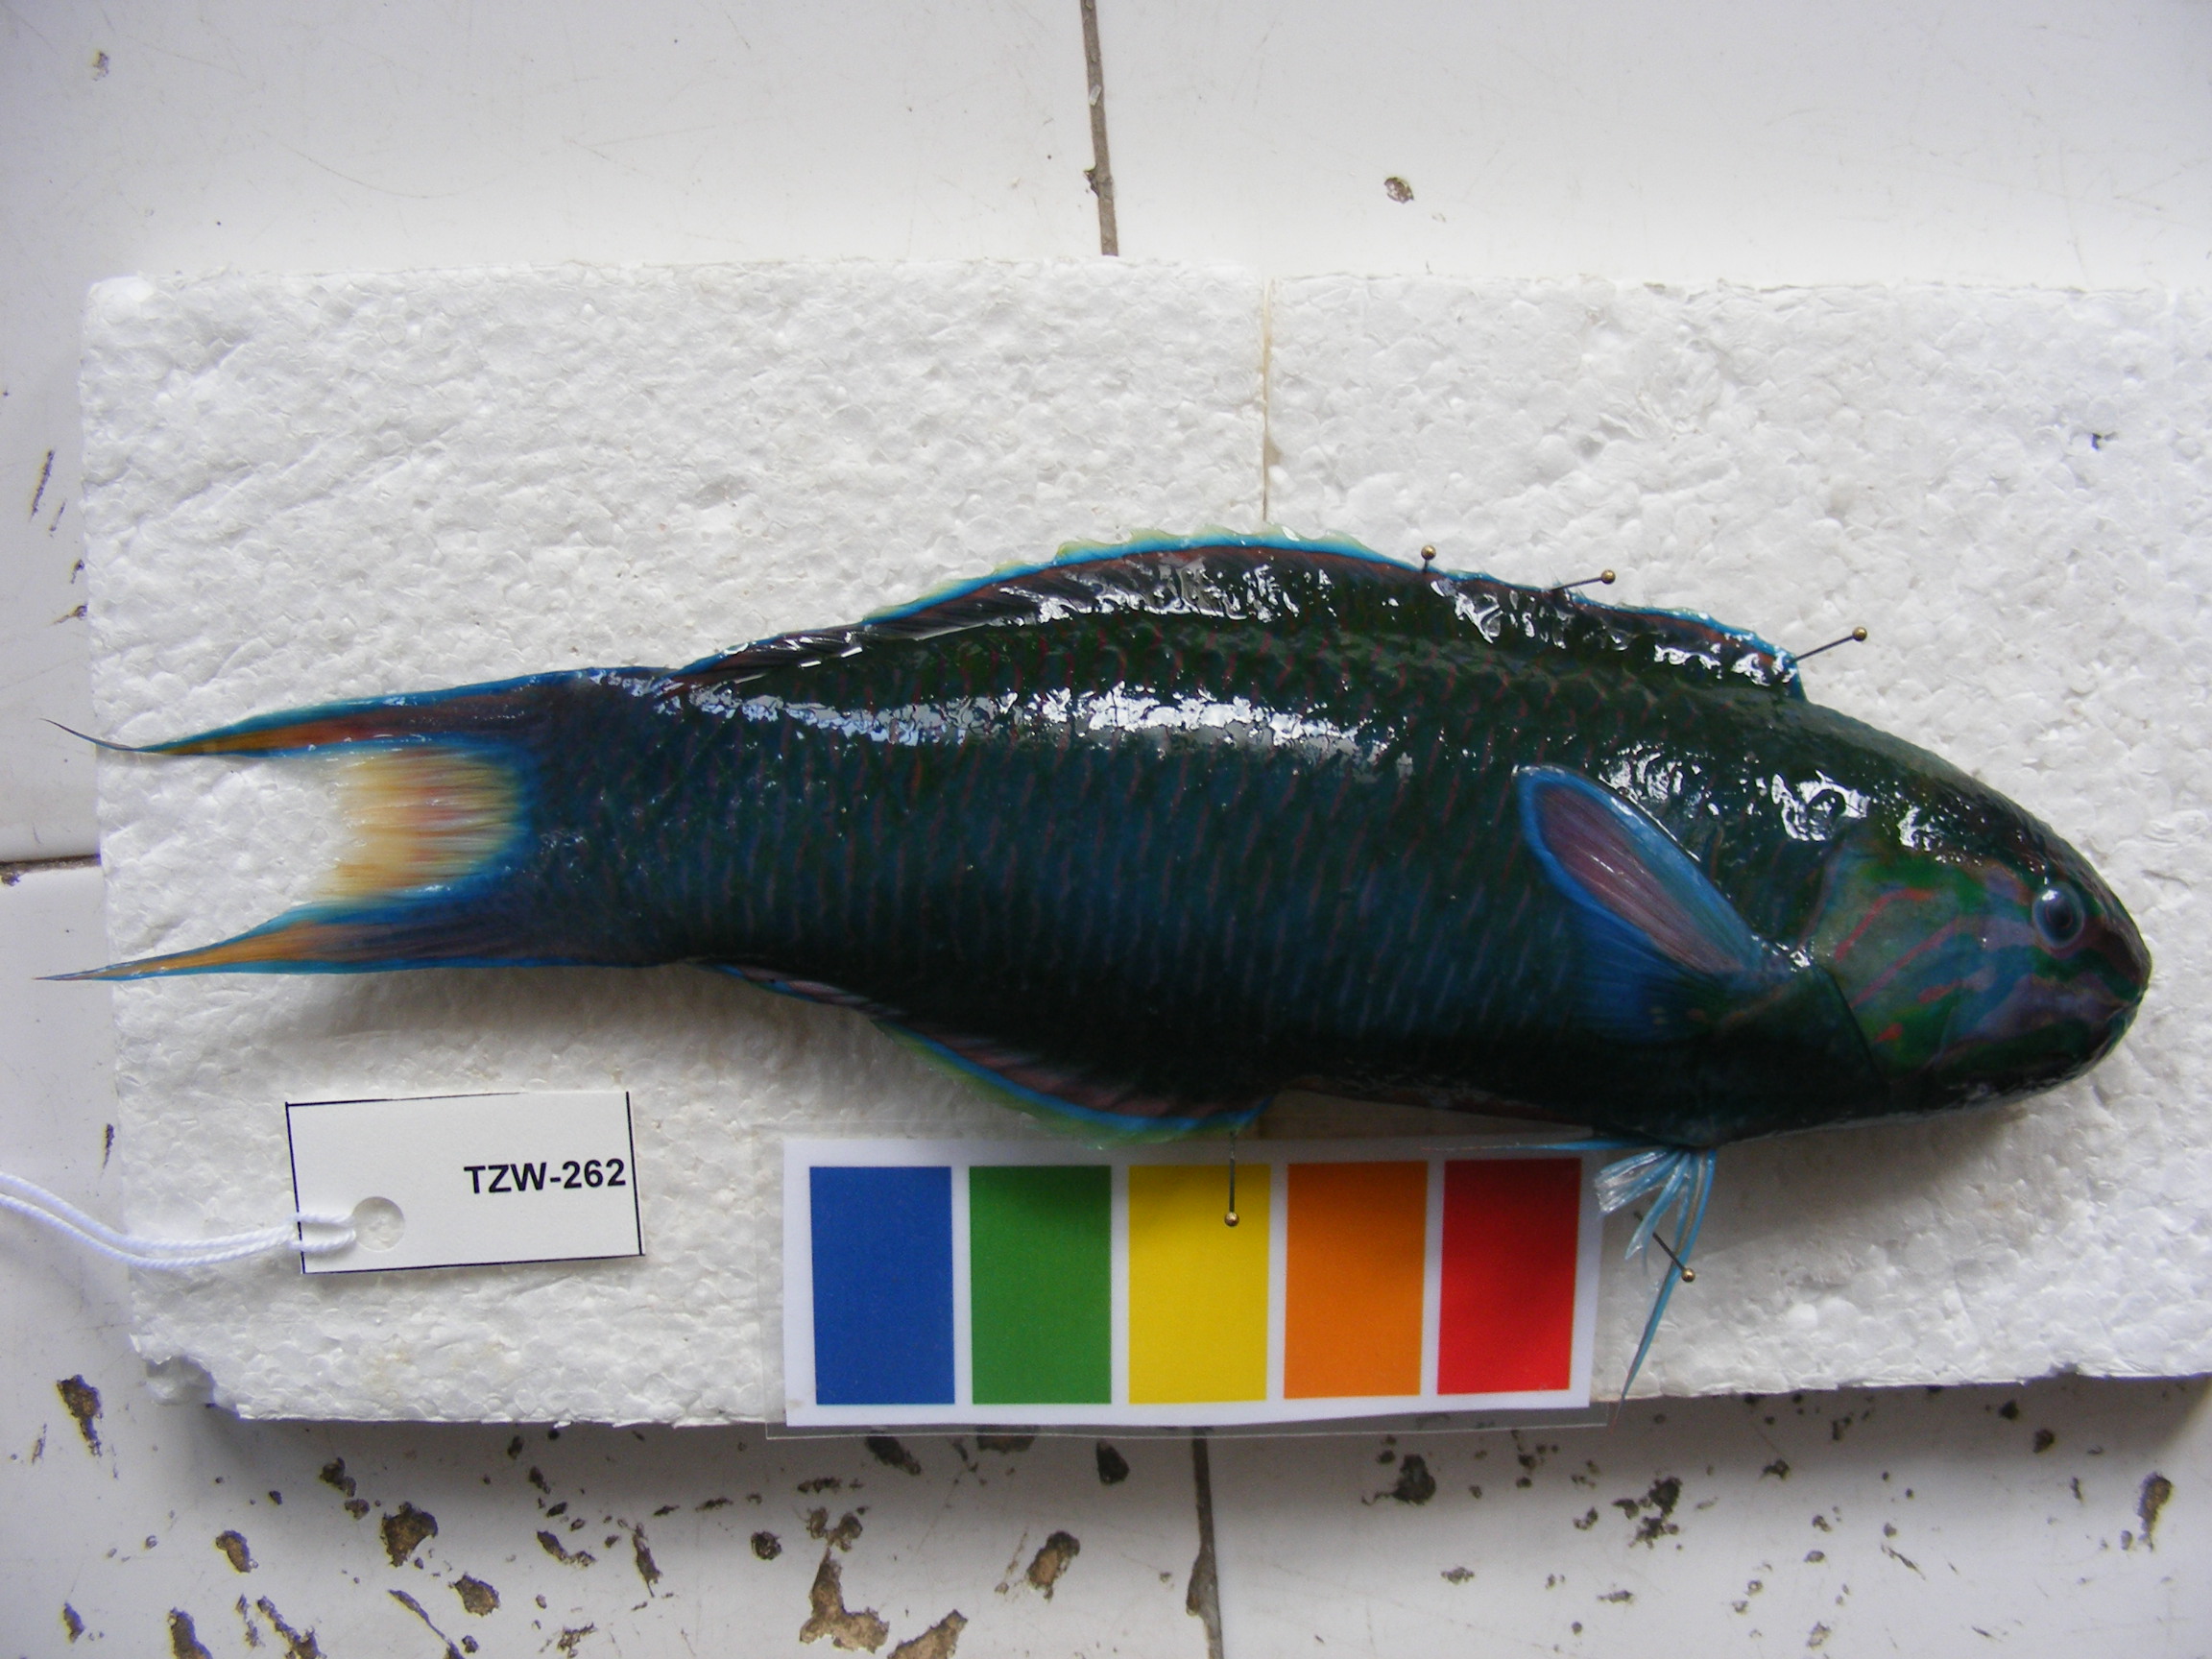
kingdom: Animalia
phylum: Chordata
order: Perciformes
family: Labridae
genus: Thalassoma
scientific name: Thalassoma lunare
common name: Blue wrasse
